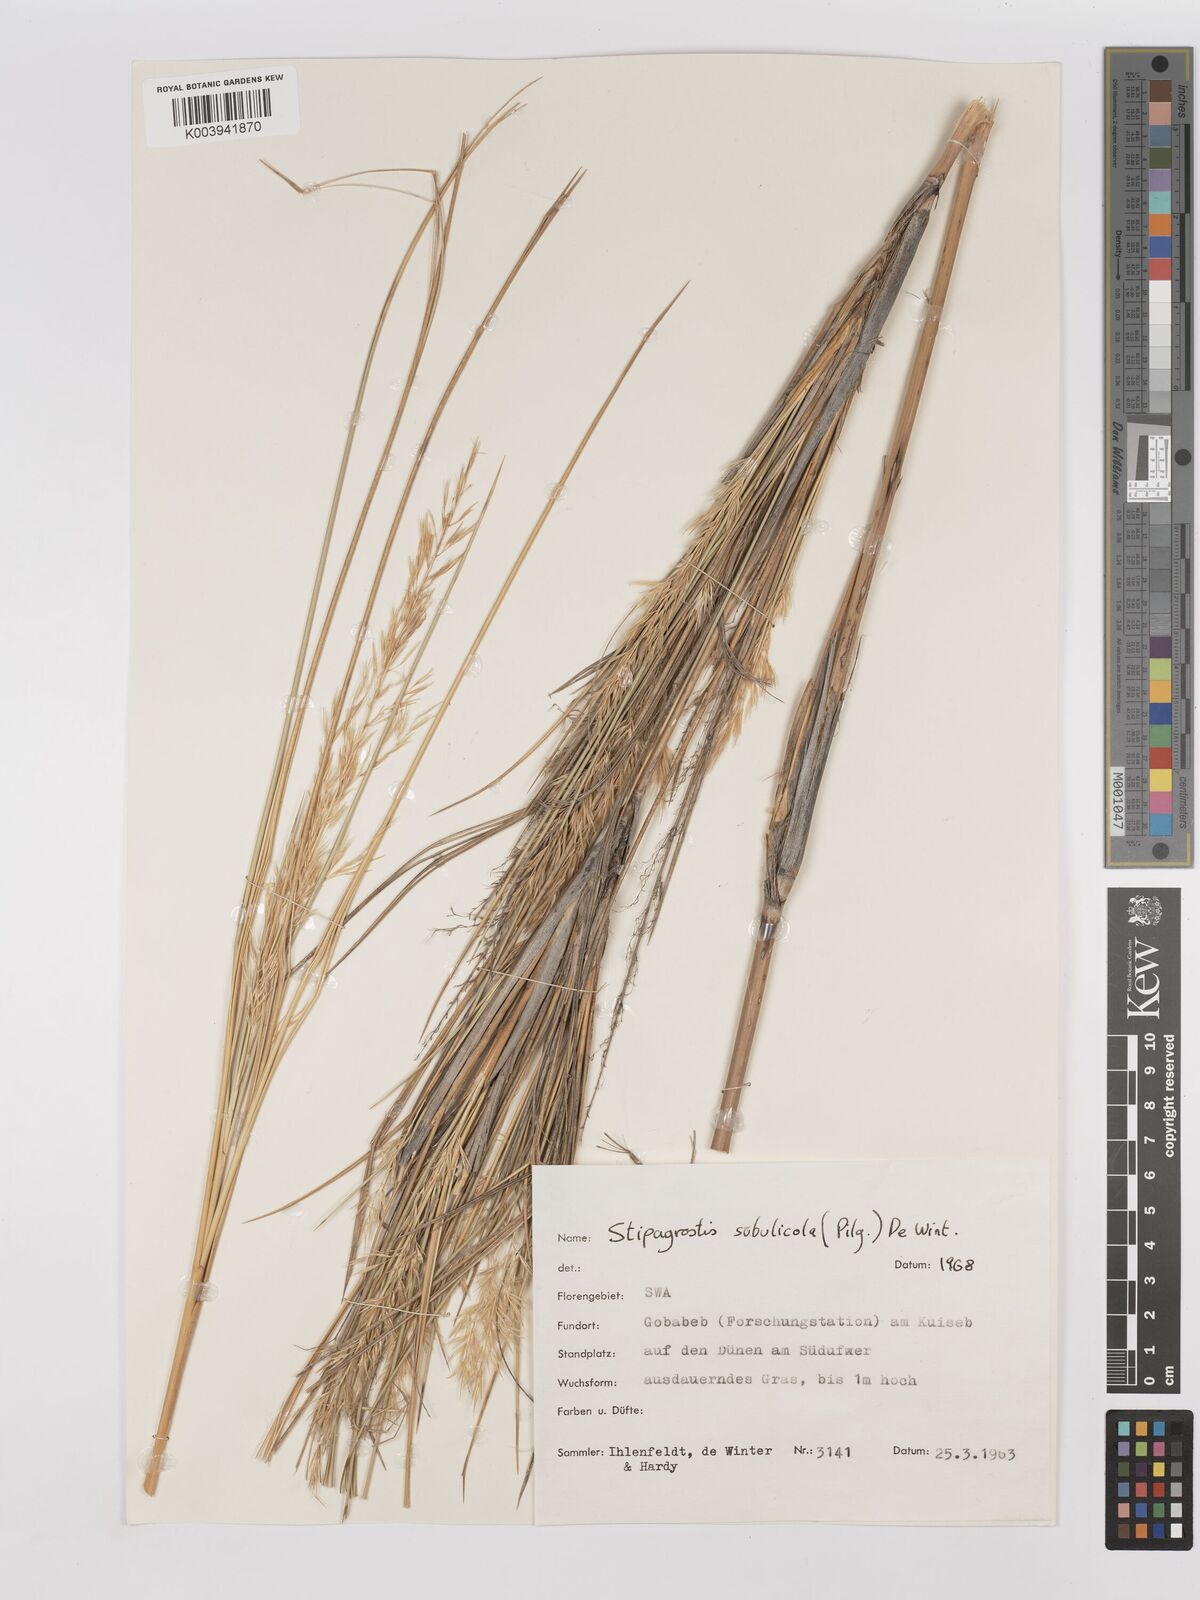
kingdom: Plantae
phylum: Tracheophyta
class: Liliopsida
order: Poales
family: Poaceae
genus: Stipagrostis
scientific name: Stipagrostis sabulicola
